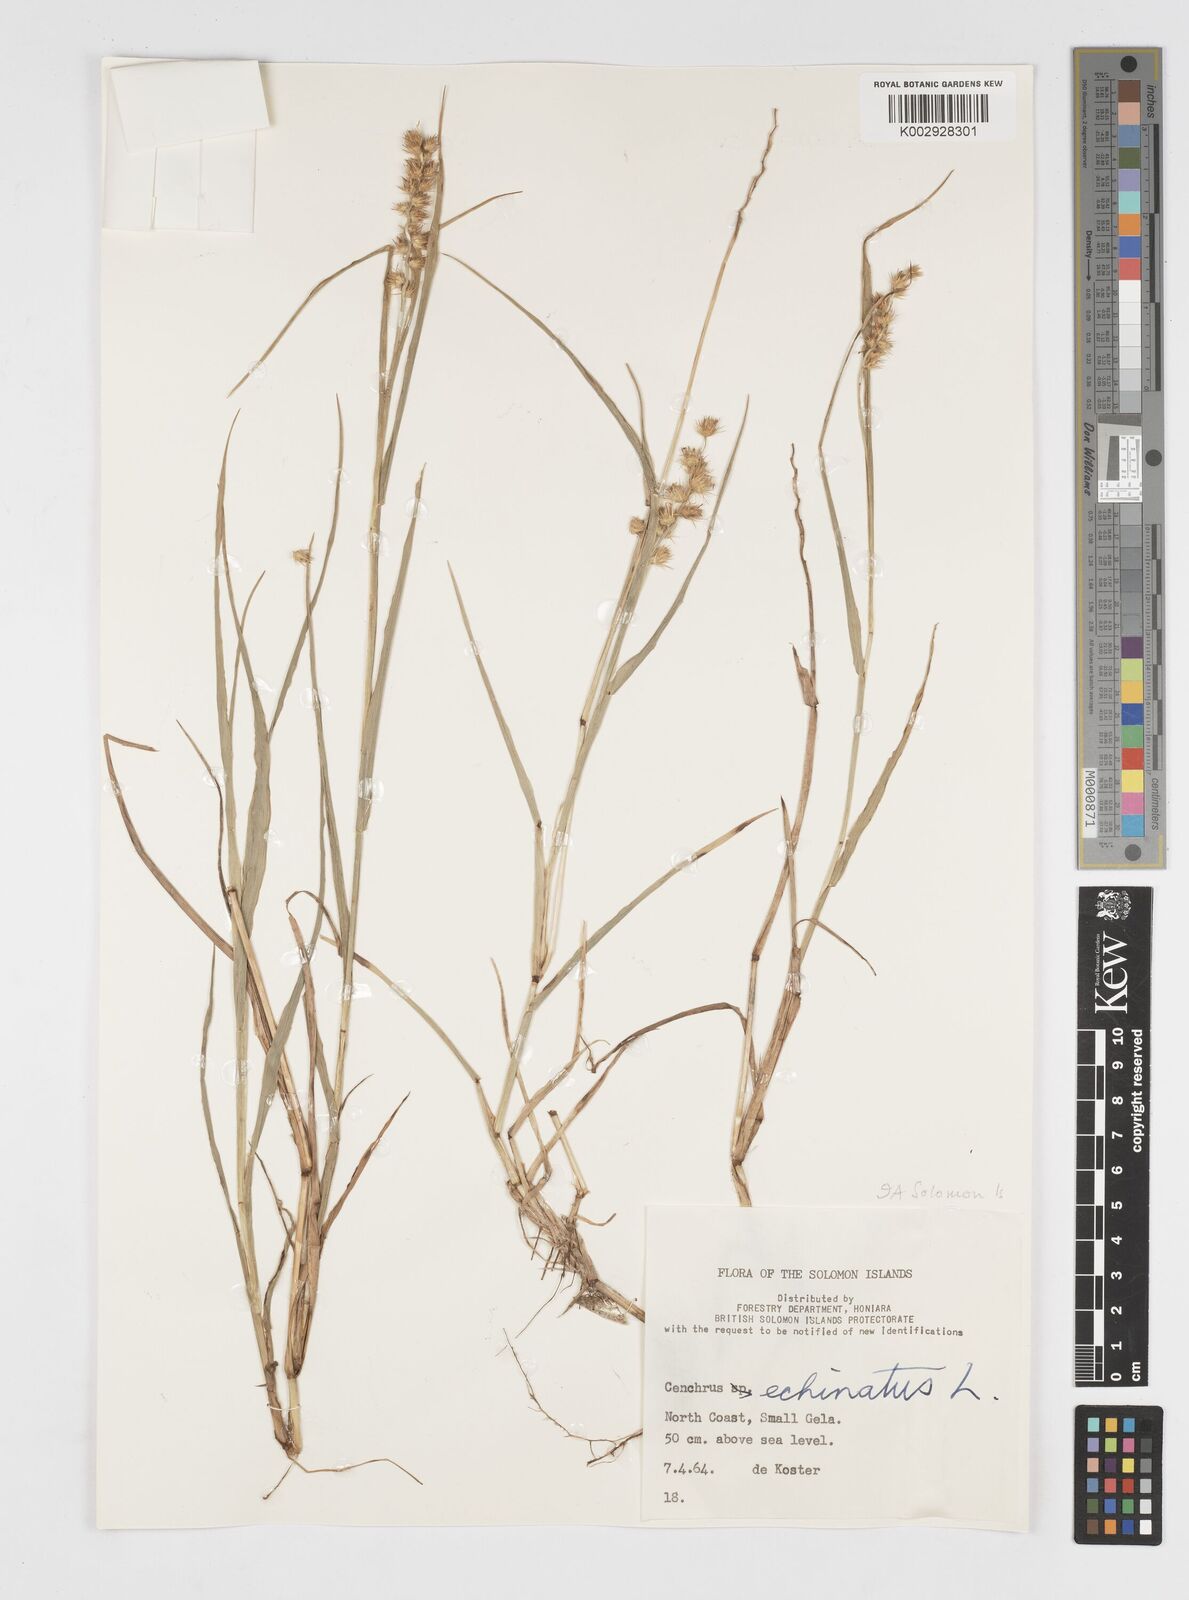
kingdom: Plantae
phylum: Tracheophyta
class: Liliopsida
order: Poales
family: Poaceae
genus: Cenchrus
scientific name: Cenchrus echinatus
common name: Southern sandbur
